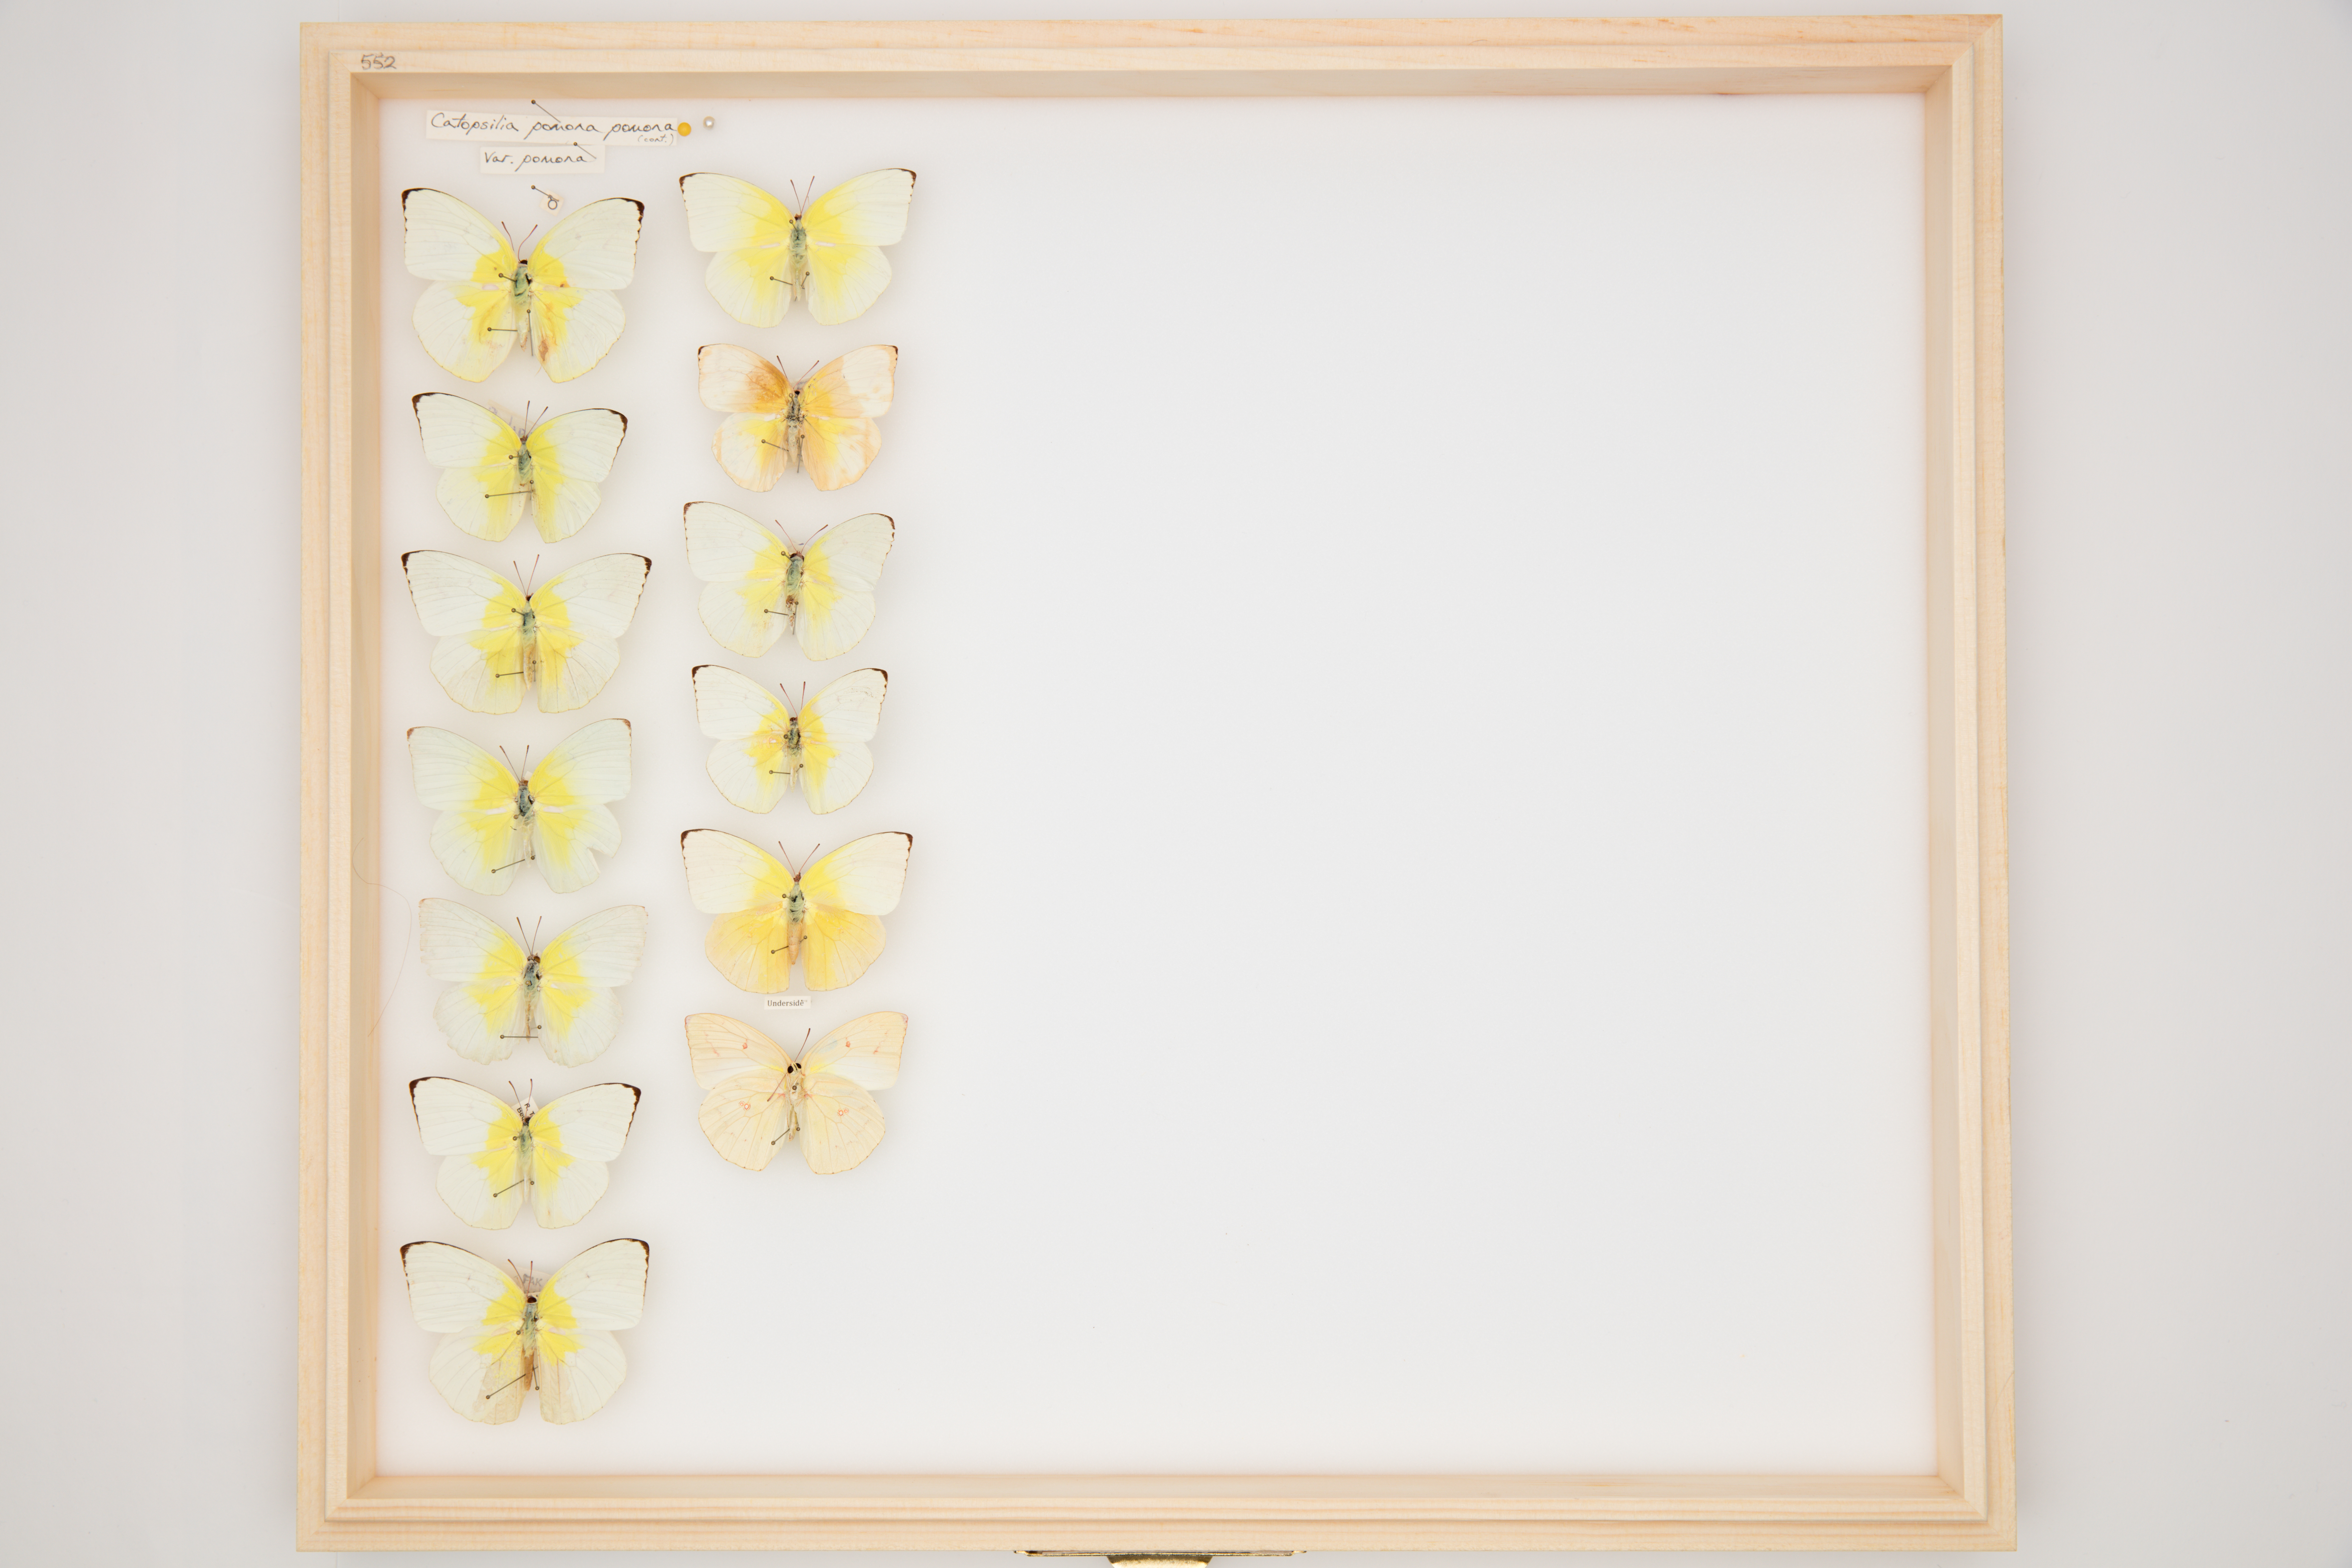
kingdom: Animalia
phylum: Arthropoda
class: Insecta
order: Lepidoptera
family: Pieridae
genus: Catopsilia
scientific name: Catopsilia pomona
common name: Common emigrant
